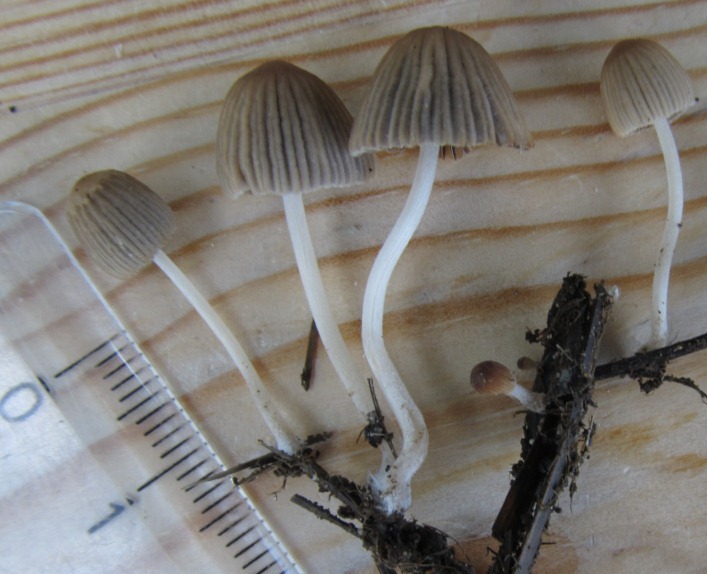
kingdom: Fungi
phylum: Basidiomycota
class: Agaricomycetes
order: Agaricales
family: Psathyrellaceae
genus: Tulosesus
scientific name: Tulosesus fuscocystidiatus
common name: brunøjet blækhat
